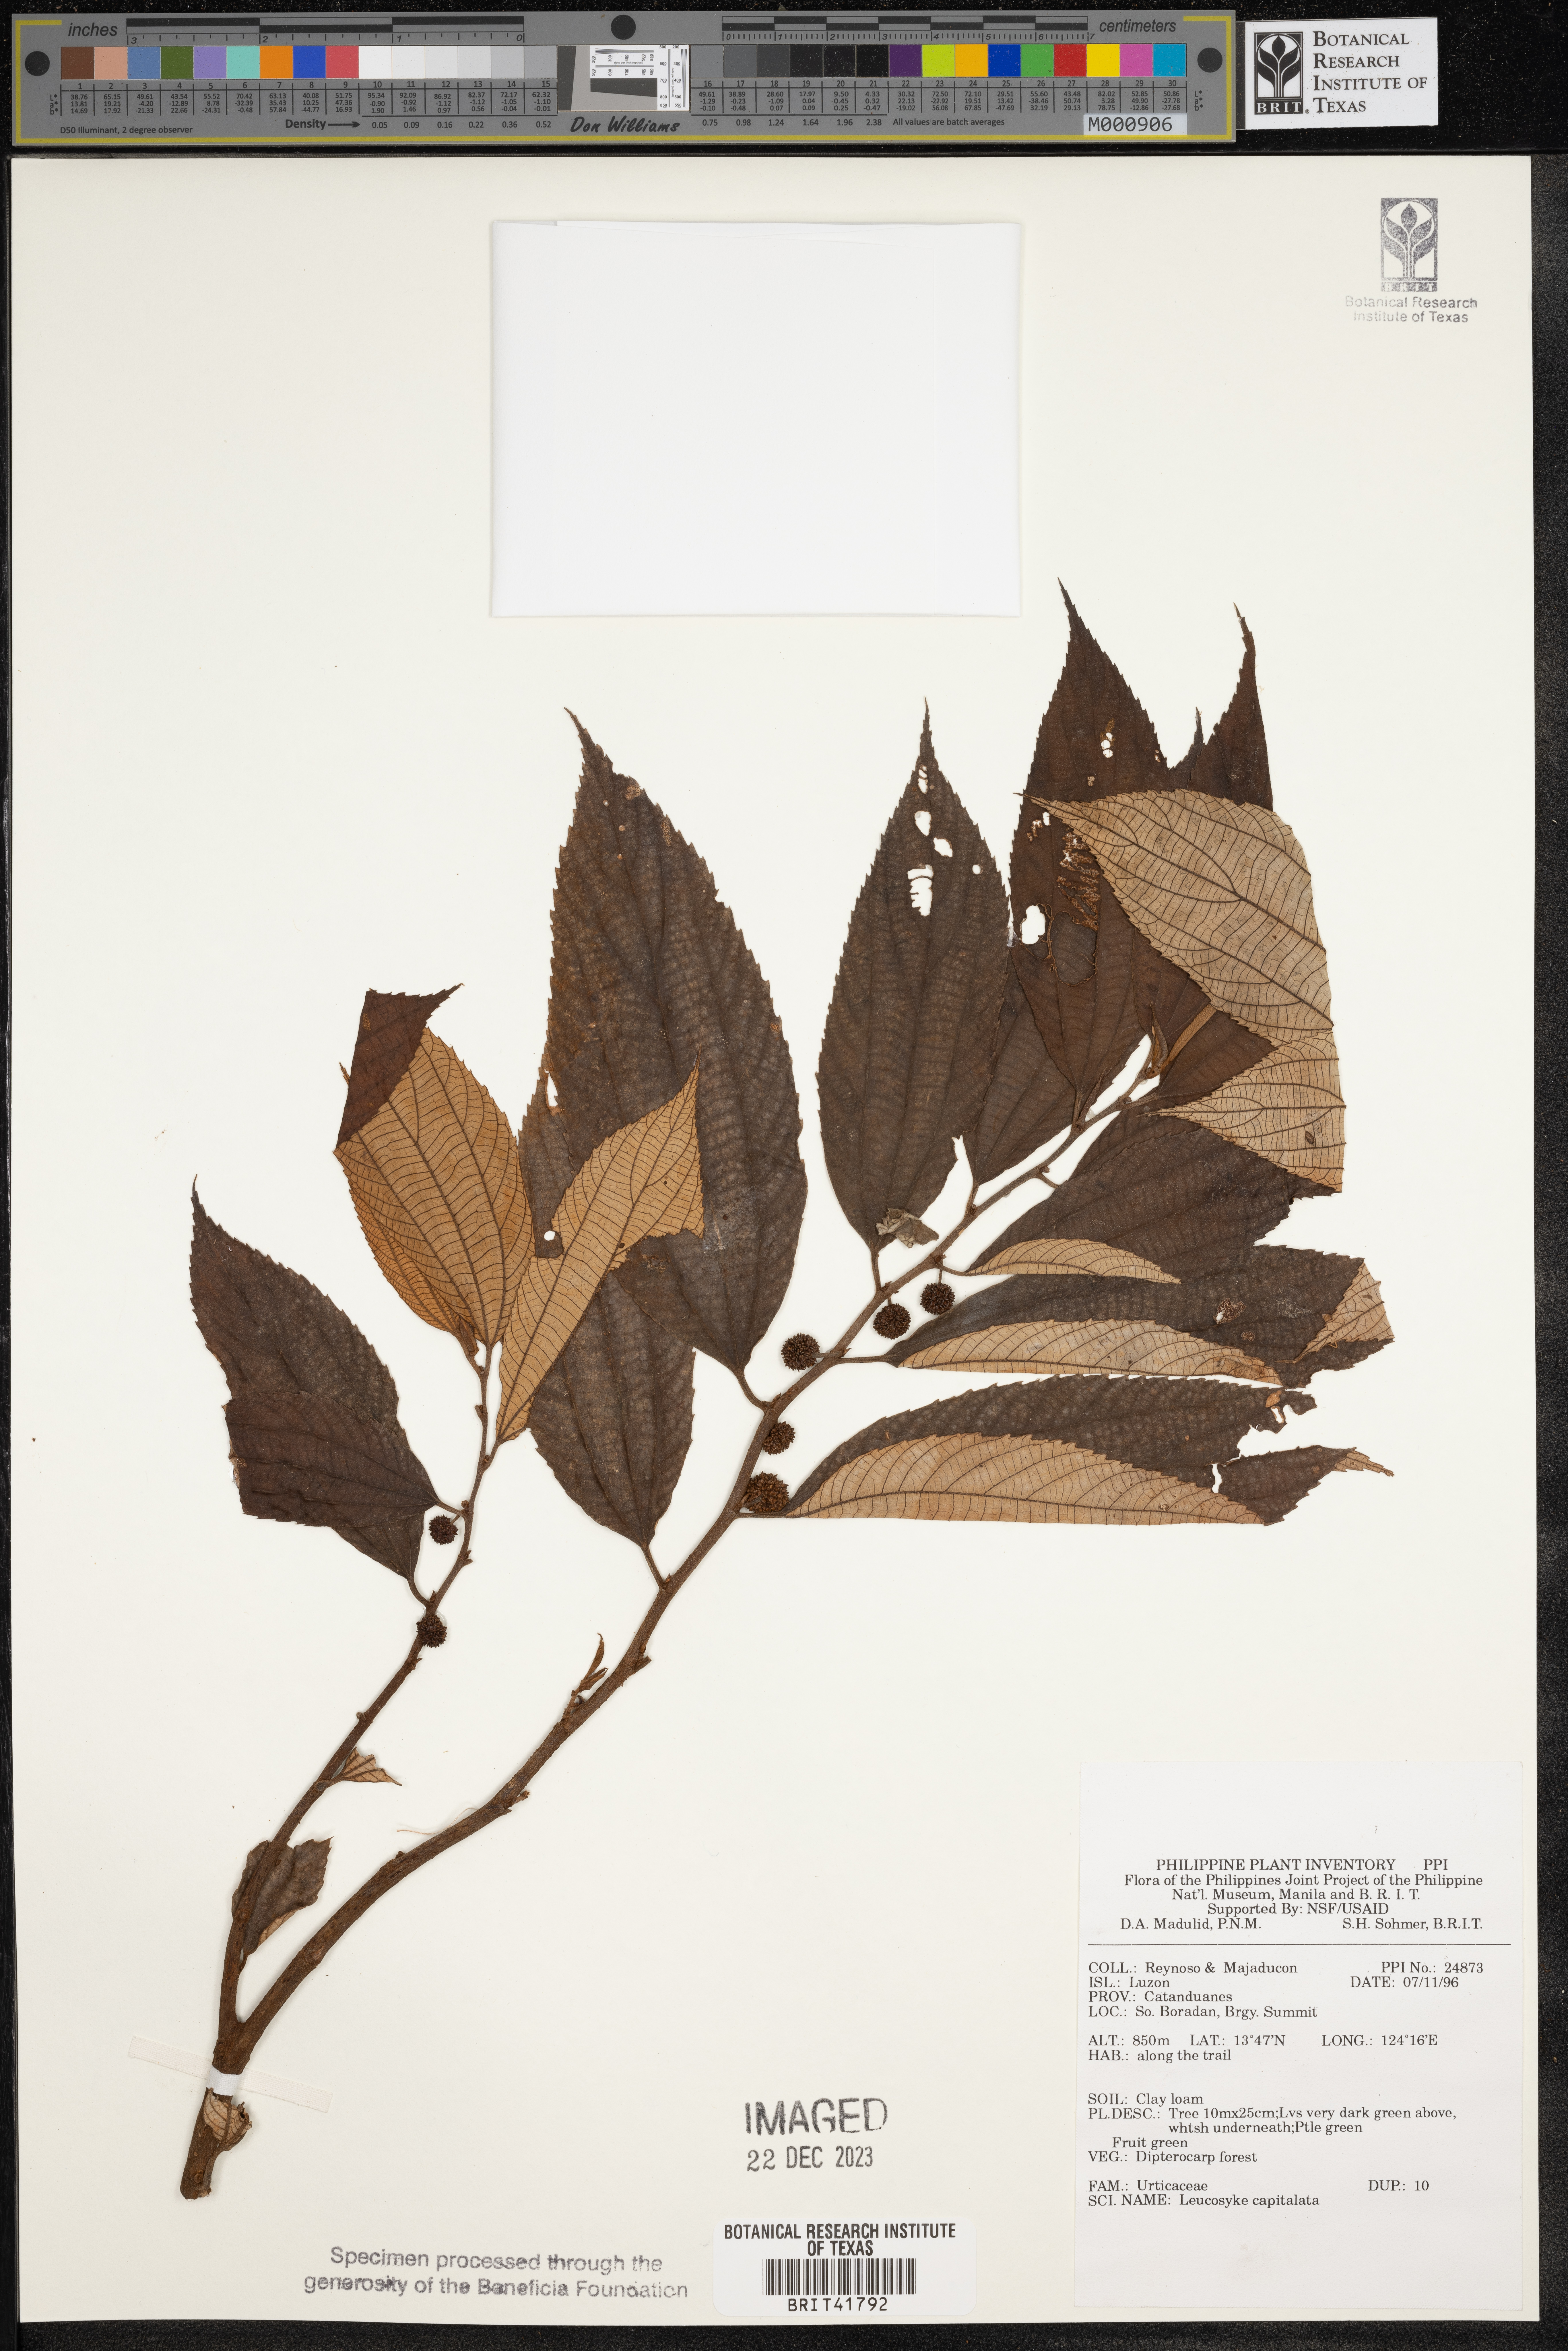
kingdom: Plantae
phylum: Tracheophyta
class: Magnoliopsida
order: Rosales
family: Urticaceae
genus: Leucosyke
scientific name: Leucosyke capitellata
